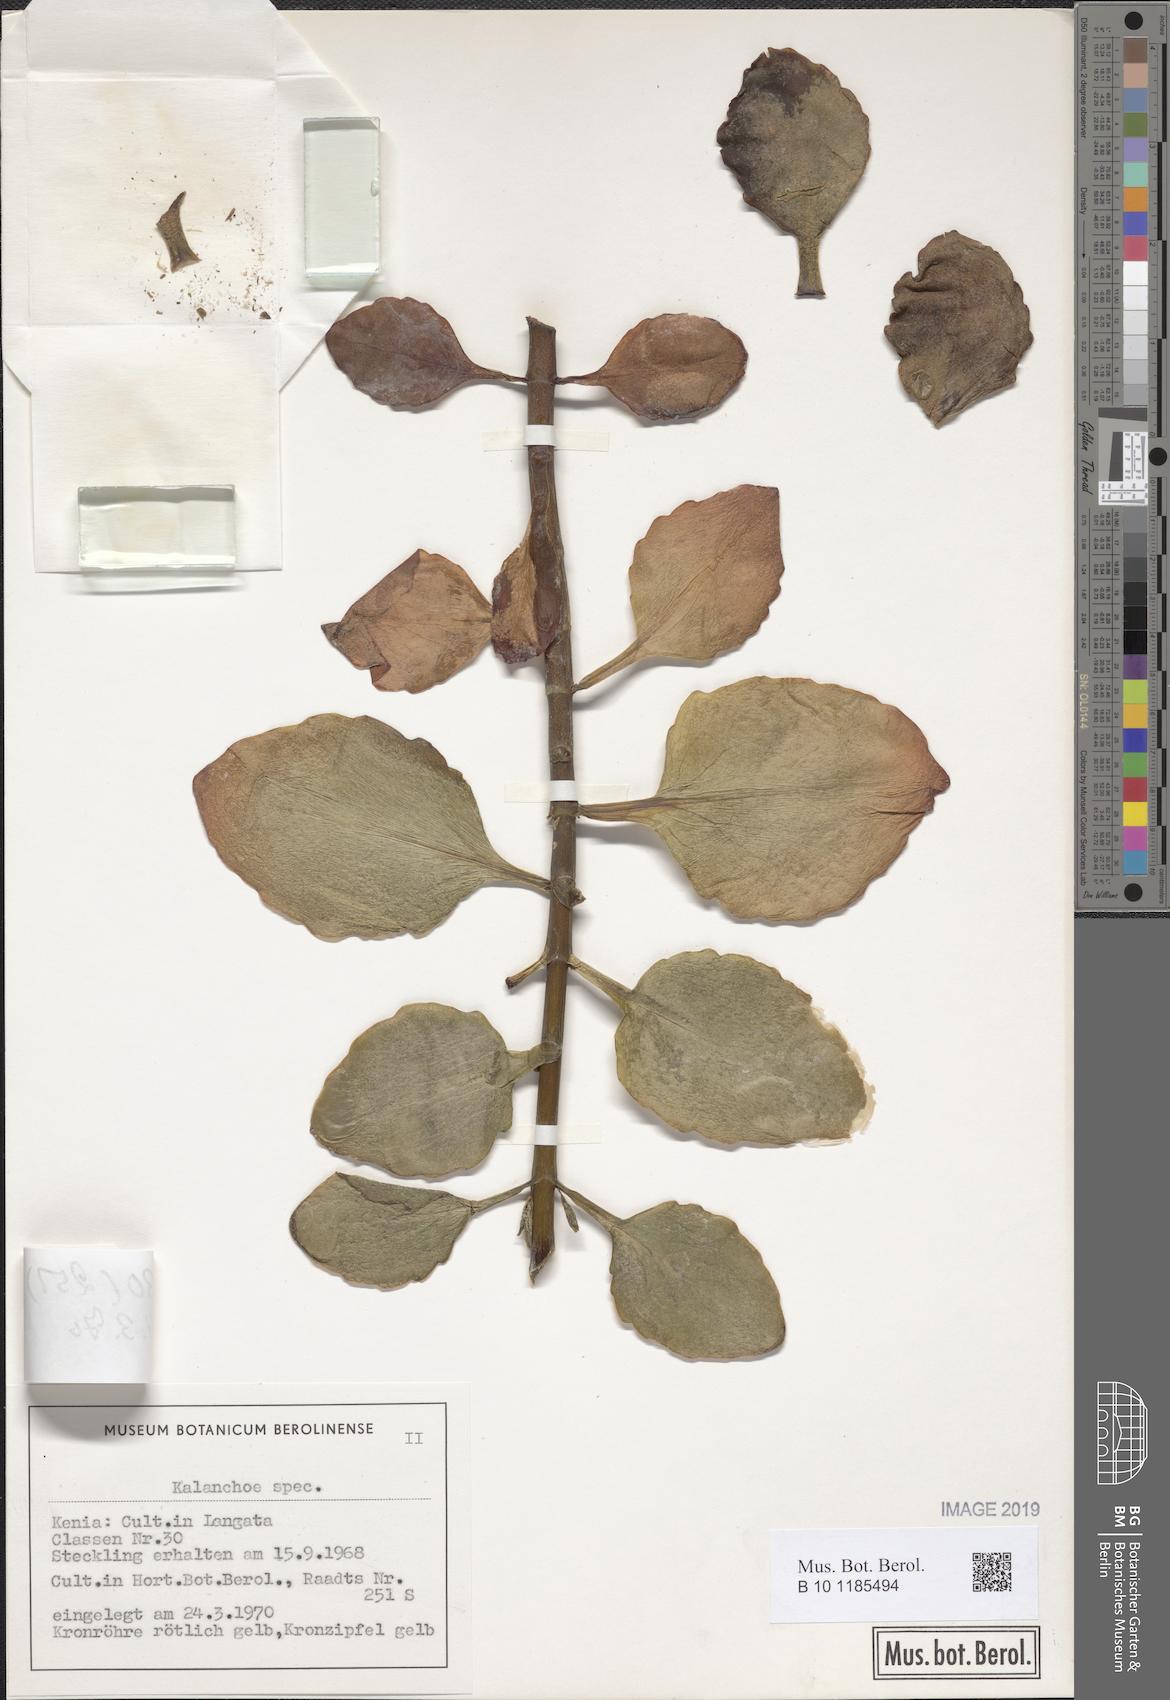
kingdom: Plantae
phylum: Tracheophyta
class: Magnoliopsida
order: Saxifragales
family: Crassulaceae
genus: Kalanchoe
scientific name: Kalanchoe
